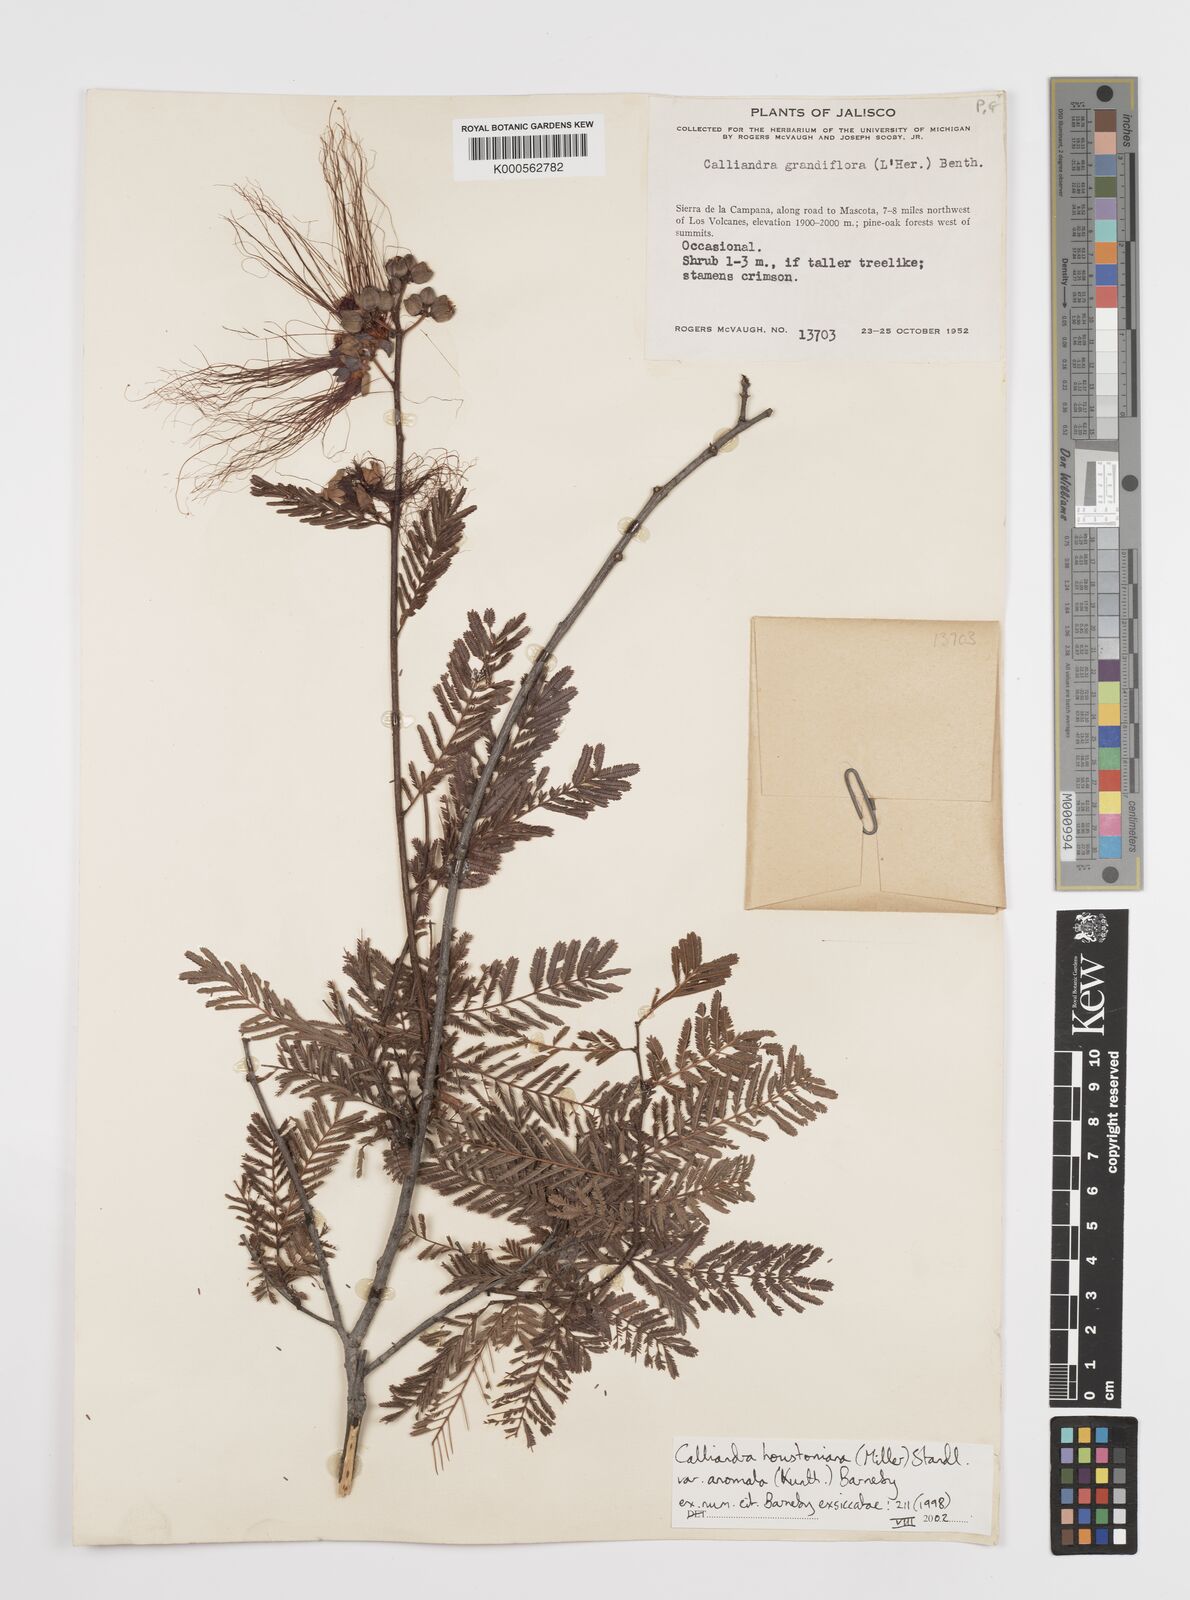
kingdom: Plantae
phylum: Tracheophyta
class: Magnoliopsida
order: Fabales
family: Fabaceae
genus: Calliandra
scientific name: Calliandra houstoniana
